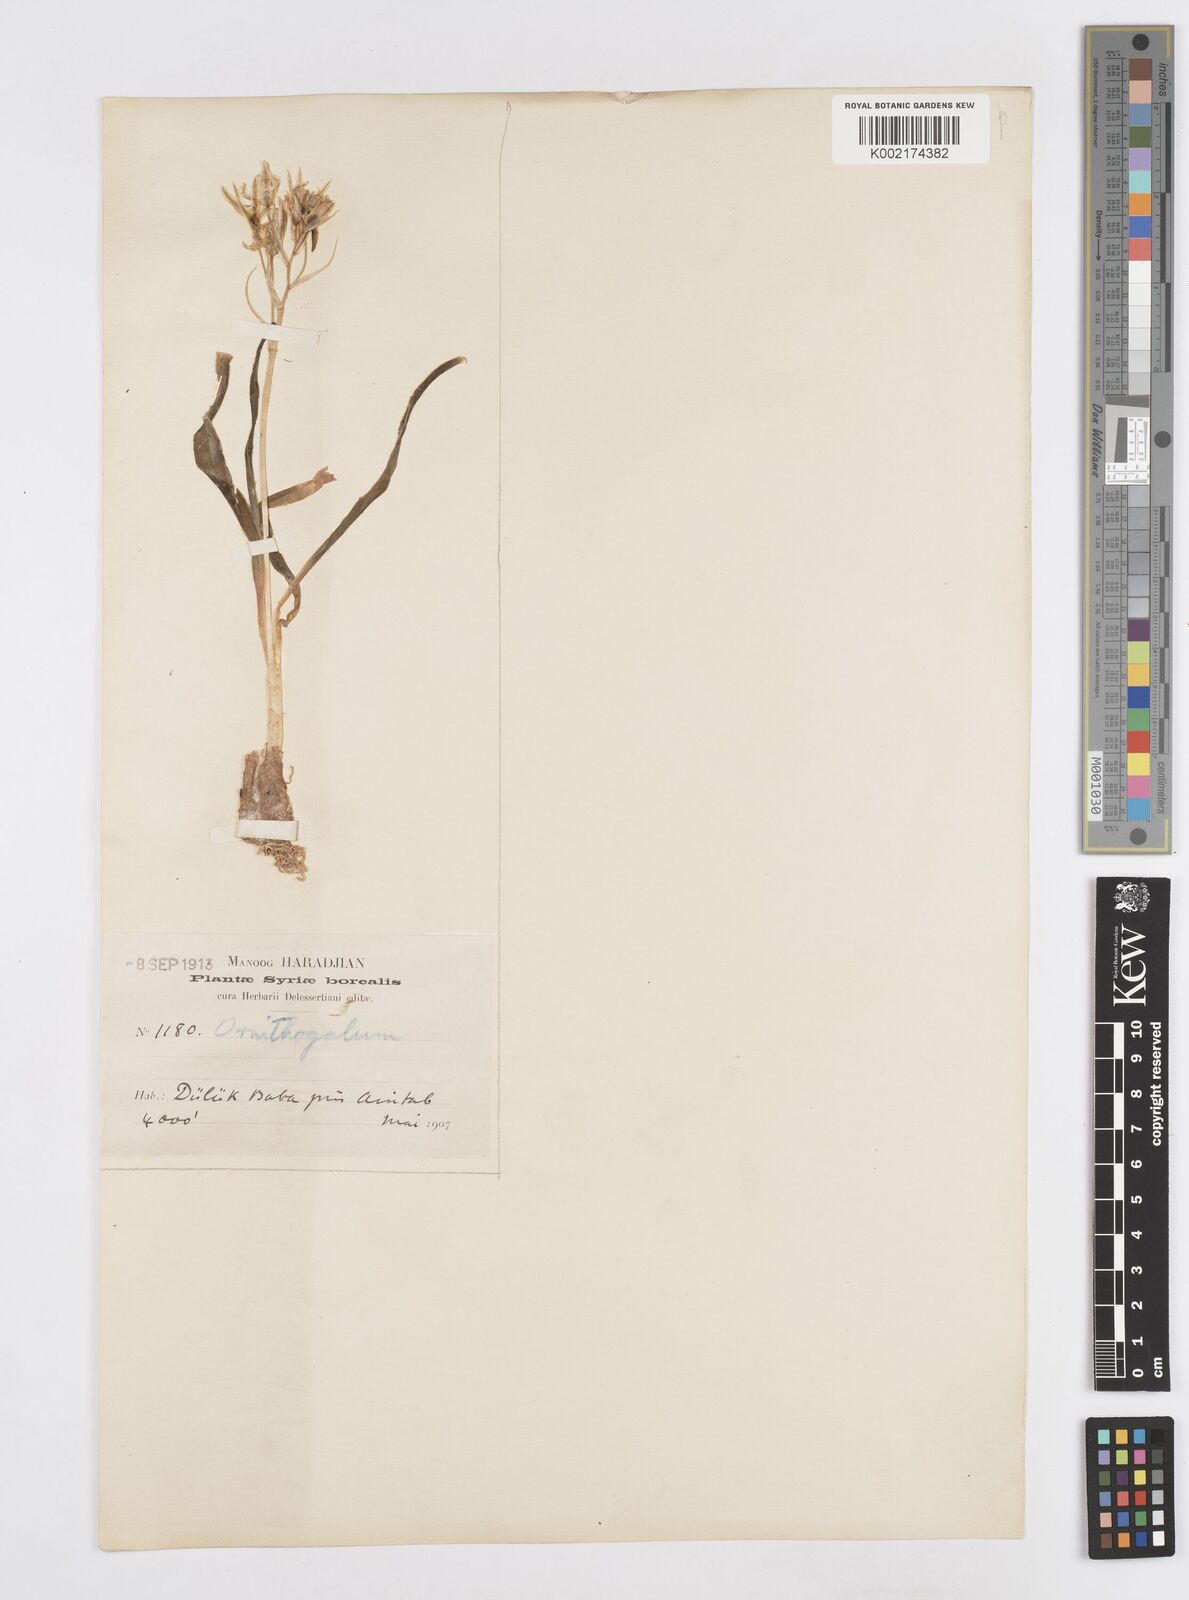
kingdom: Plantae
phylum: Tracheophyta
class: Liliopsida
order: Asparagales
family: Asparagaceae
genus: Ornithogalum
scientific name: Ornithogalum narbonense
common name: Bath-asparagus
